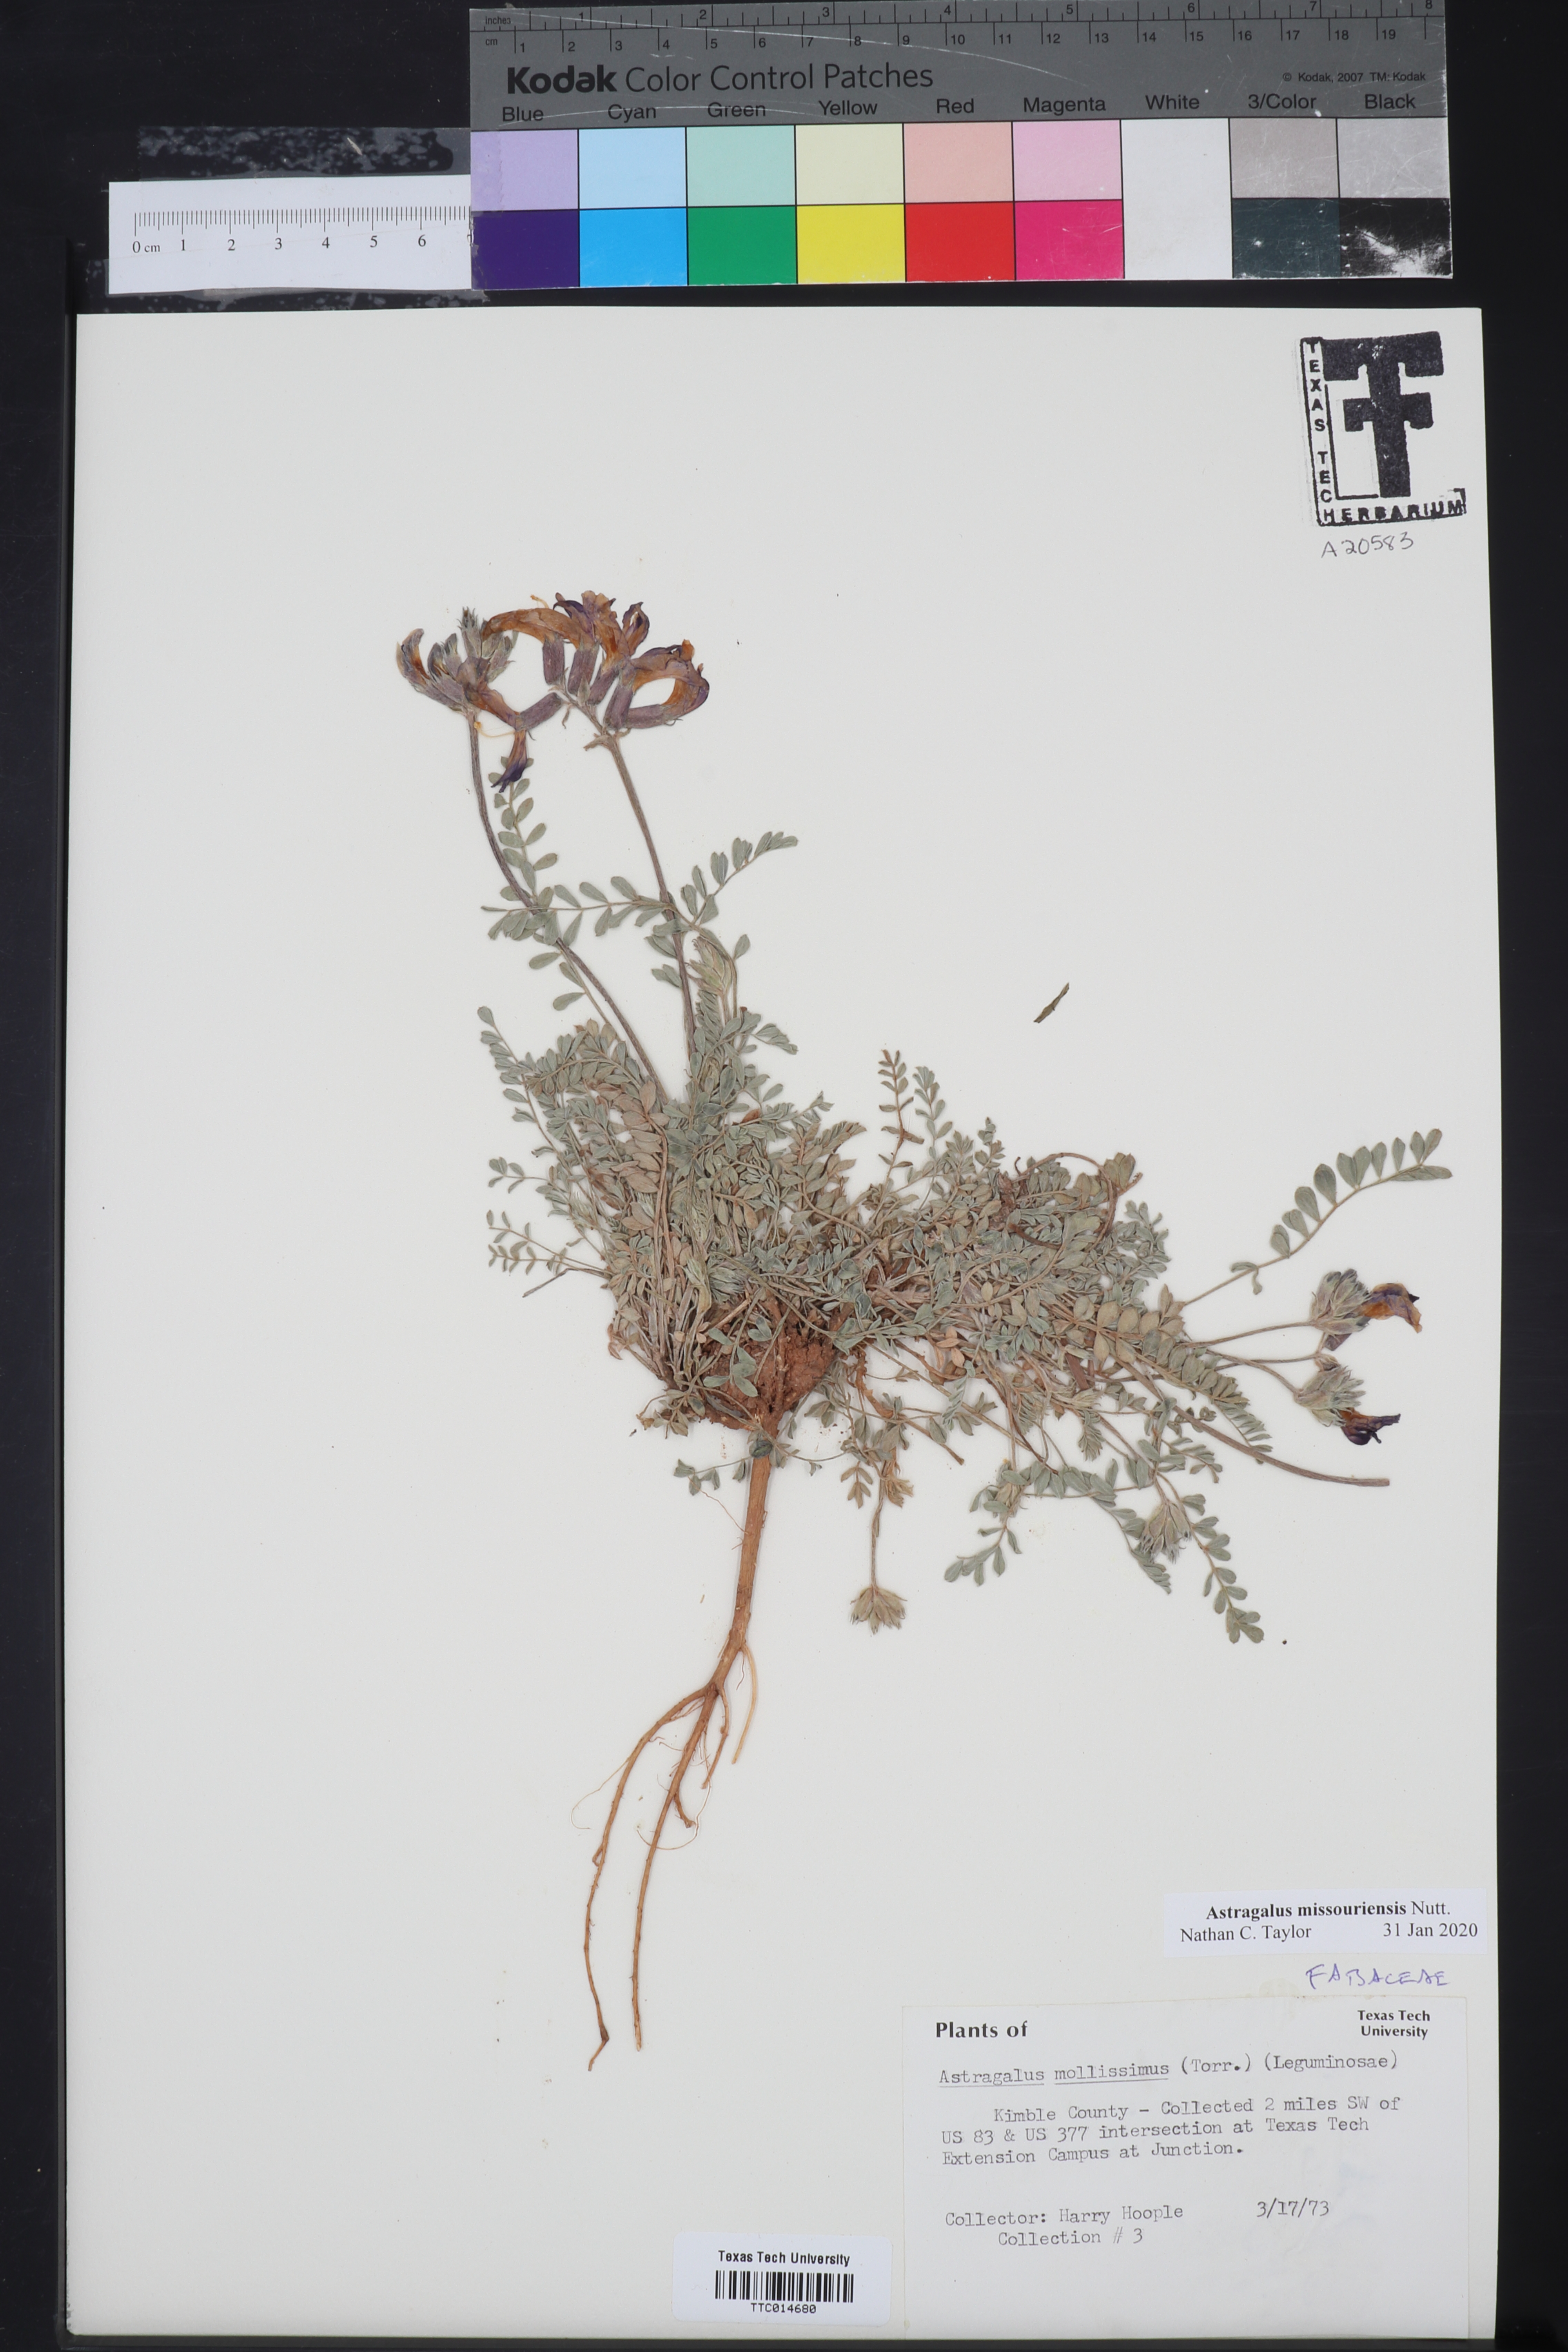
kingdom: Plantae
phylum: Tracheophyta
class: Magnoliopsida
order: Fabales
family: Fabaceae
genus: Astragalus
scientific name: Astragalus missouriensis
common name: Missouri milk-vetch
